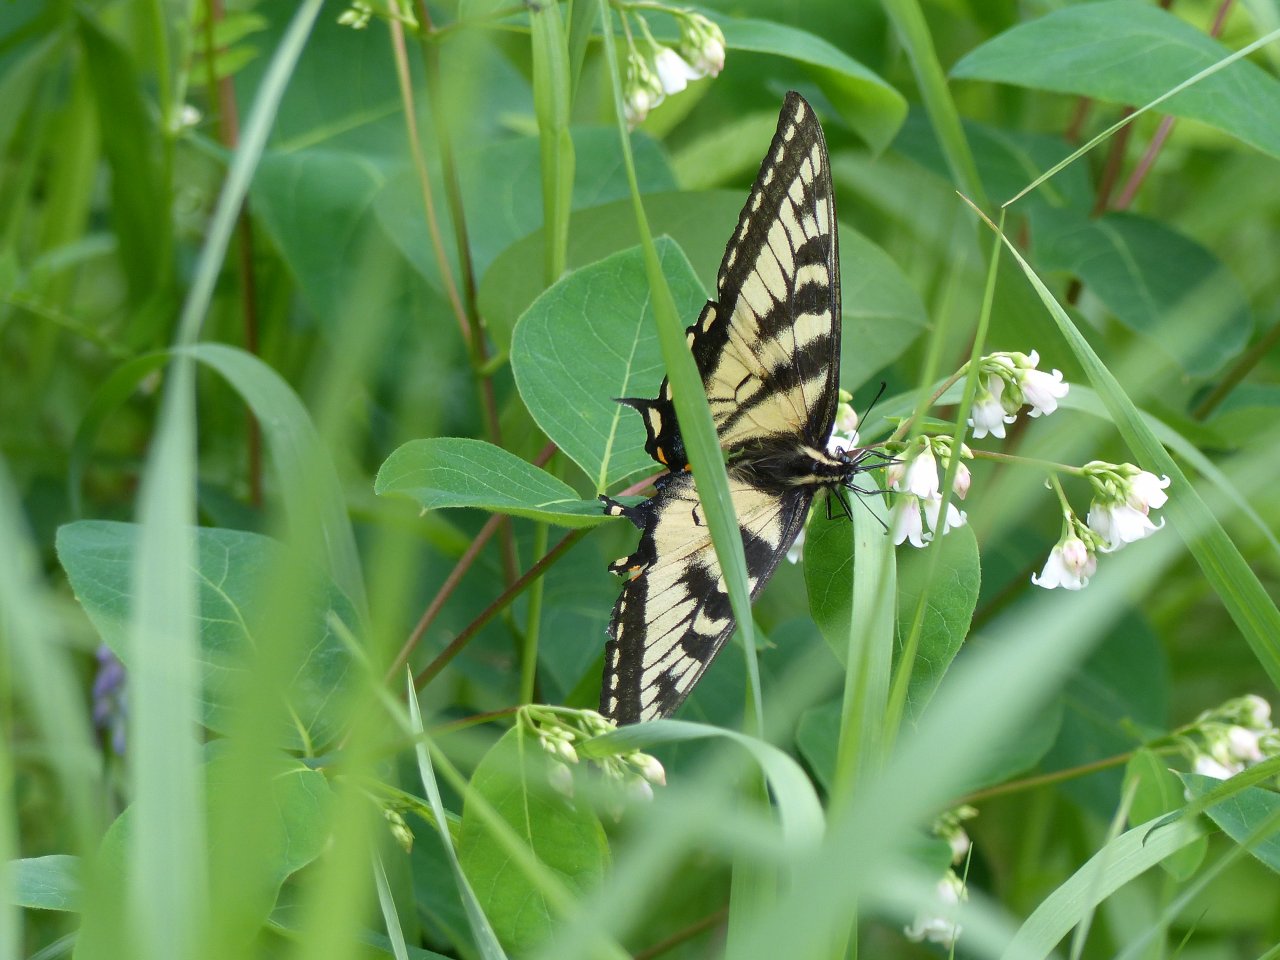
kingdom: Animalia
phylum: Arthropoda
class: Insecta
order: Lepidoptera
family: Papilionidae
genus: Pterourus
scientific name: Pterourus glaucus
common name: Eastern Tiger Swallowtail
